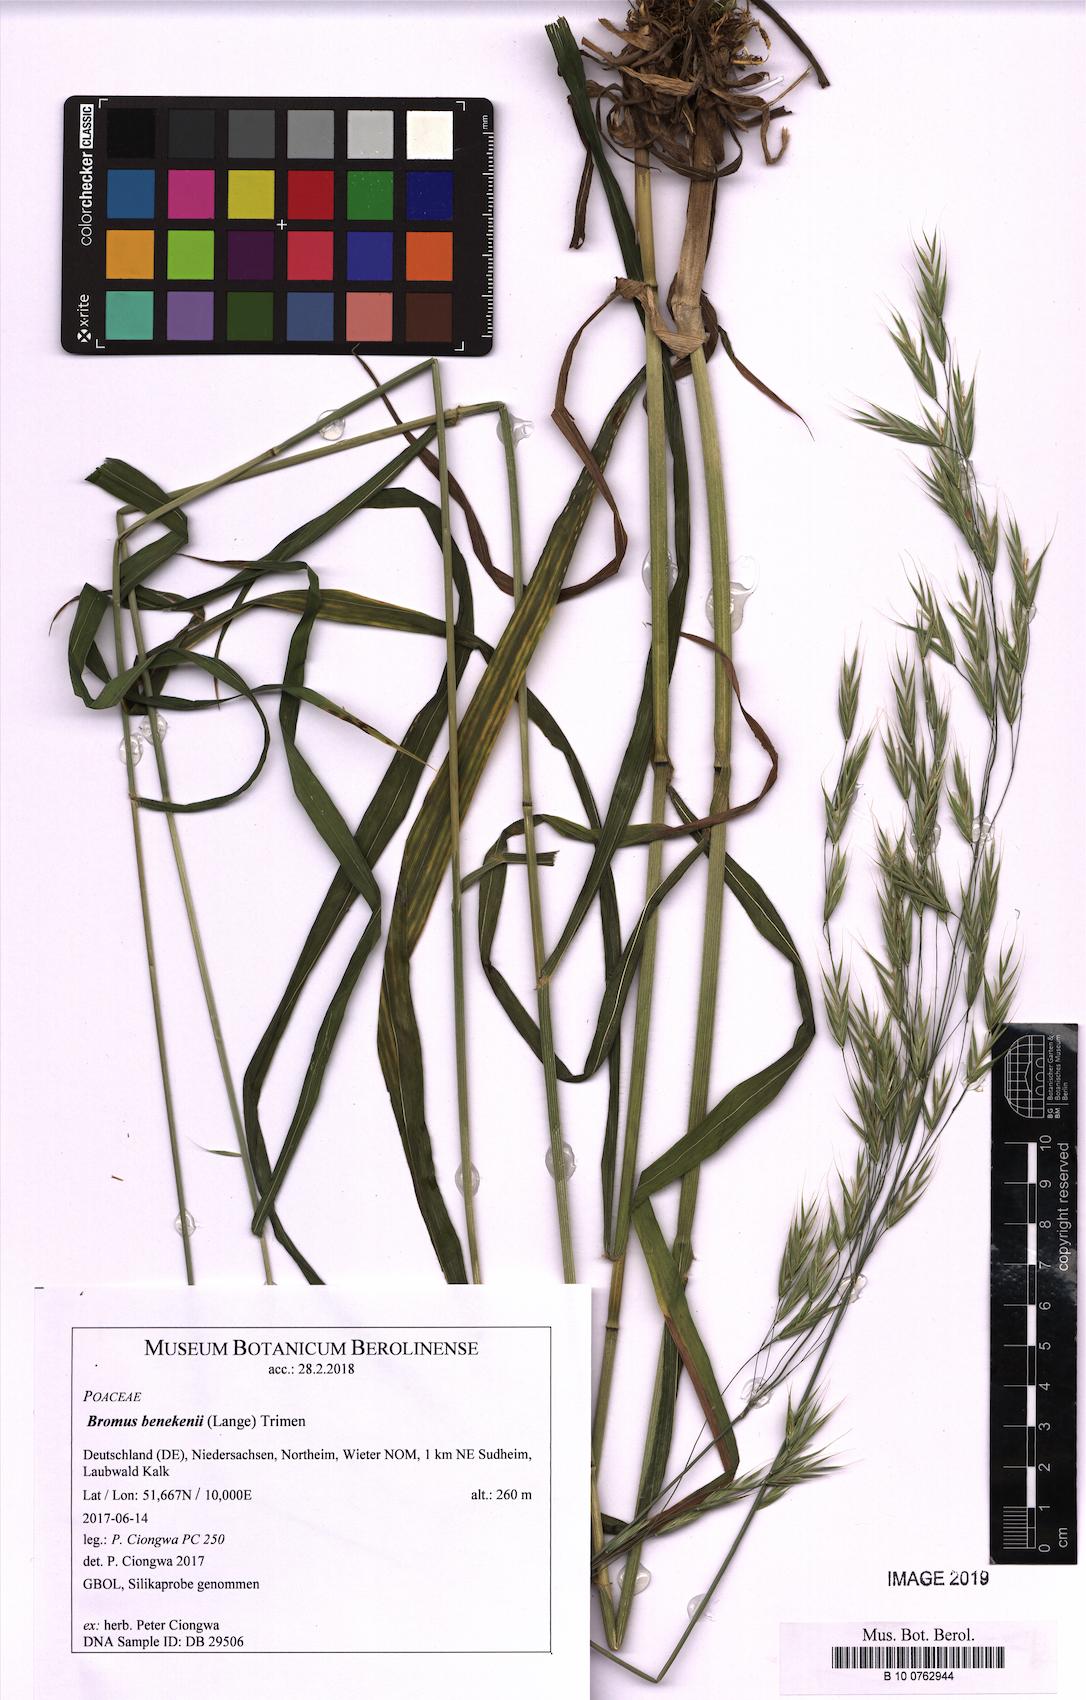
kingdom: Plantae
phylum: Tracheophyta
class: Liliopsida
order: Poales
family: Poaceae
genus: Bromus
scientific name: Bromus benekenii
